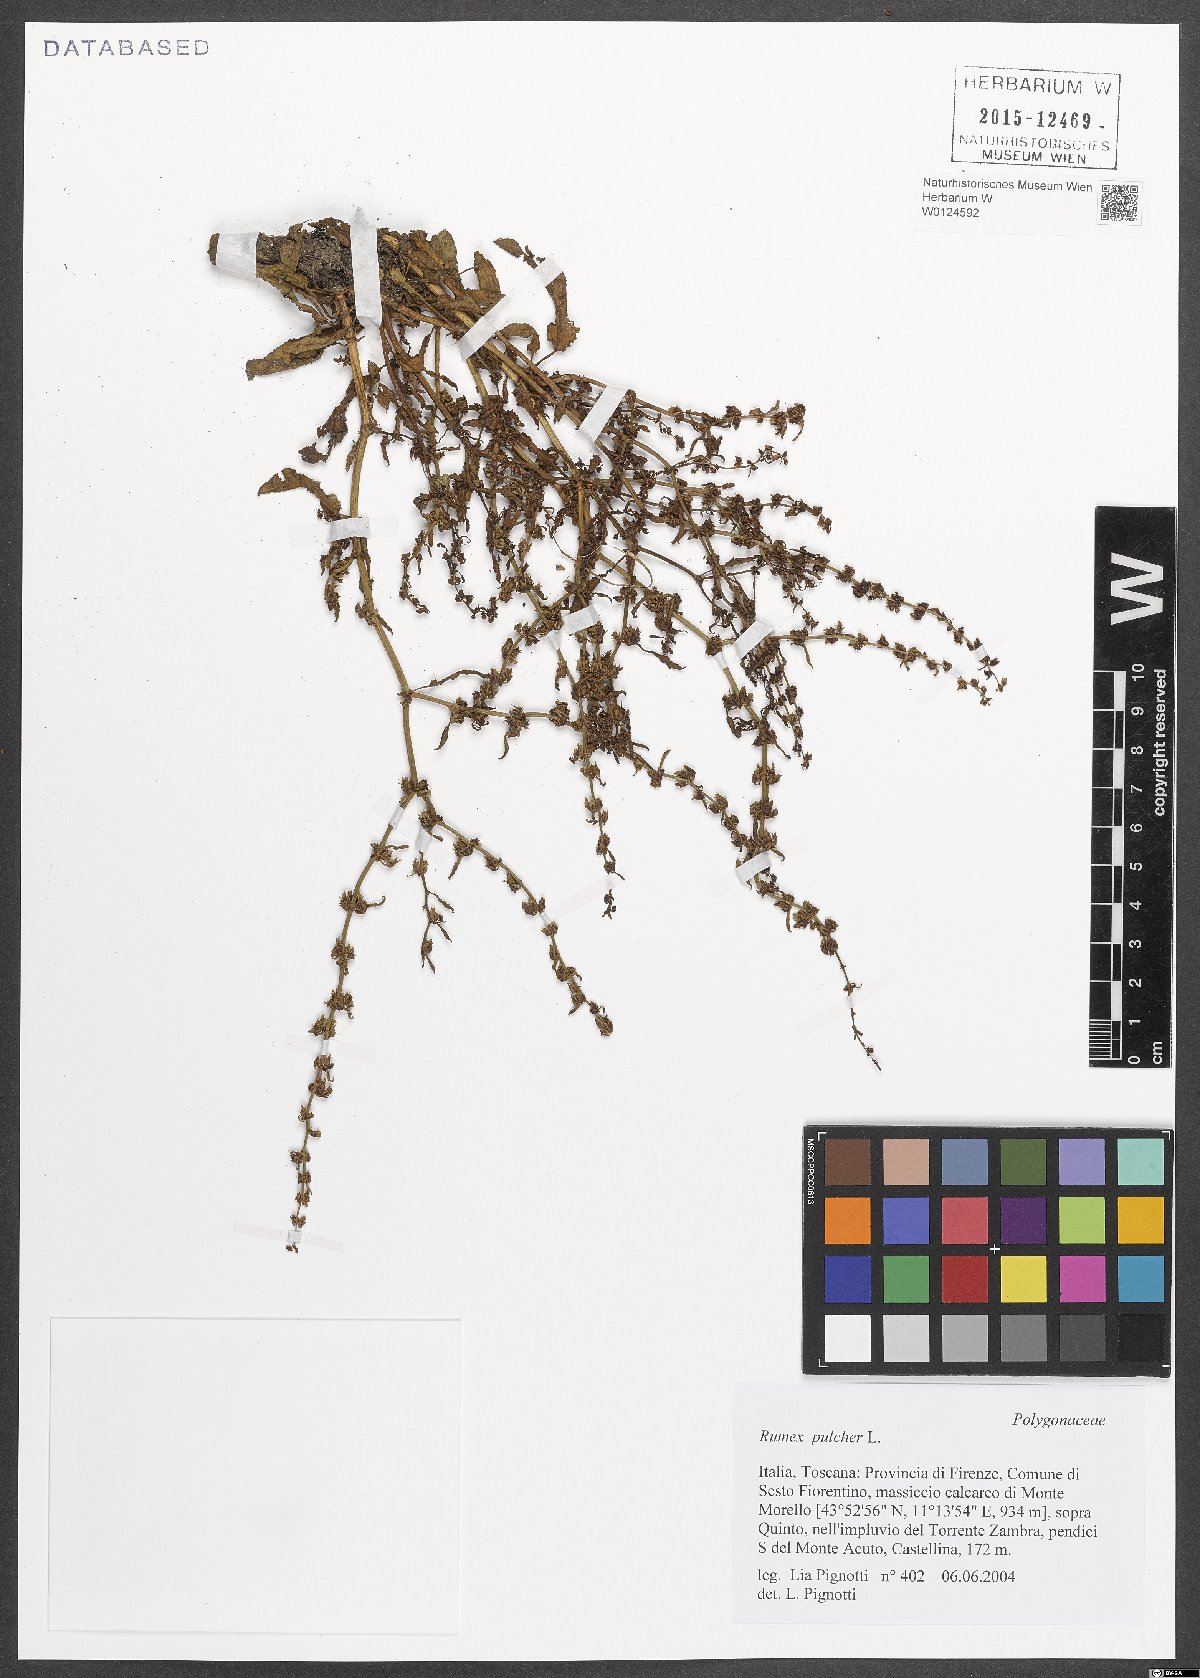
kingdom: Plantae
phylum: Tracheophyta
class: Magnoliopsida
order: Caryophyllales
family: Polygonaceae
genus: Rumex
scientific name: Rumex pulcher
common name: Fiddle dock
